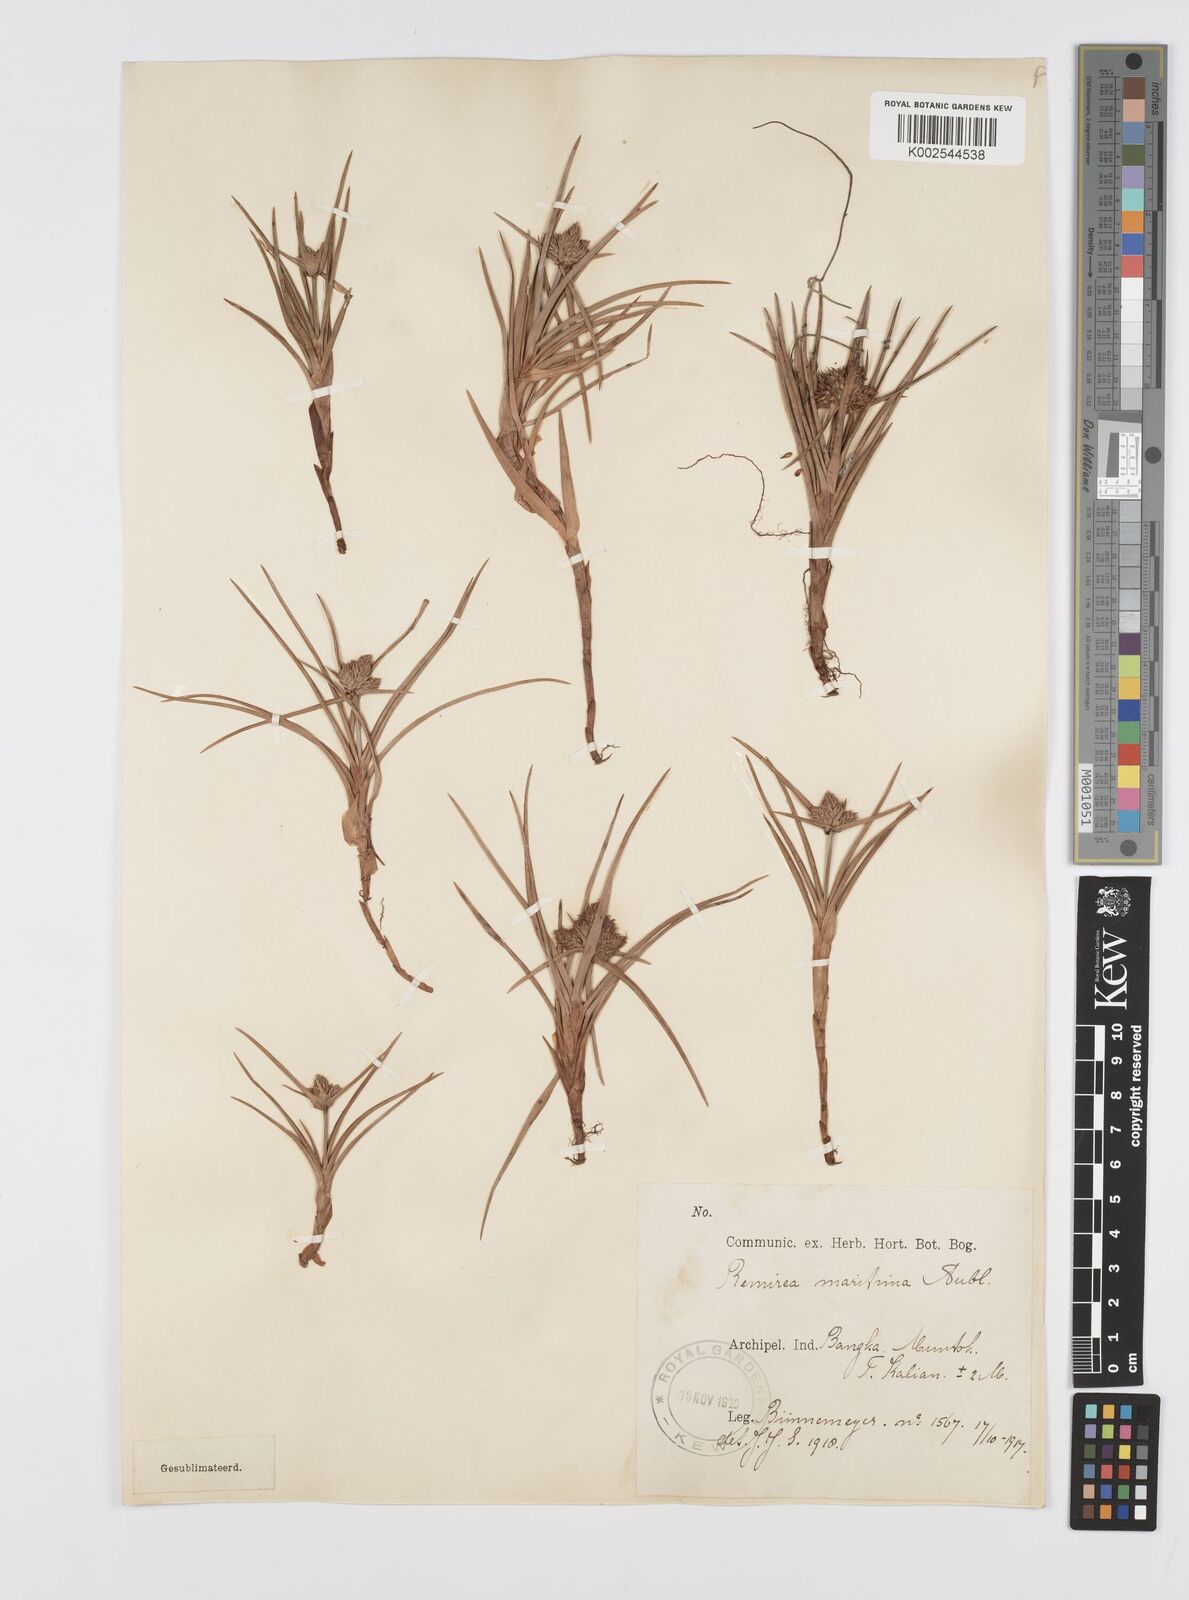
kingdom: Plantae
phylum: Tracheophyta
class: Liliopsida
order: Poales
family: Cyperaceae
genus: Cyperus
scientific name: Cyperus
